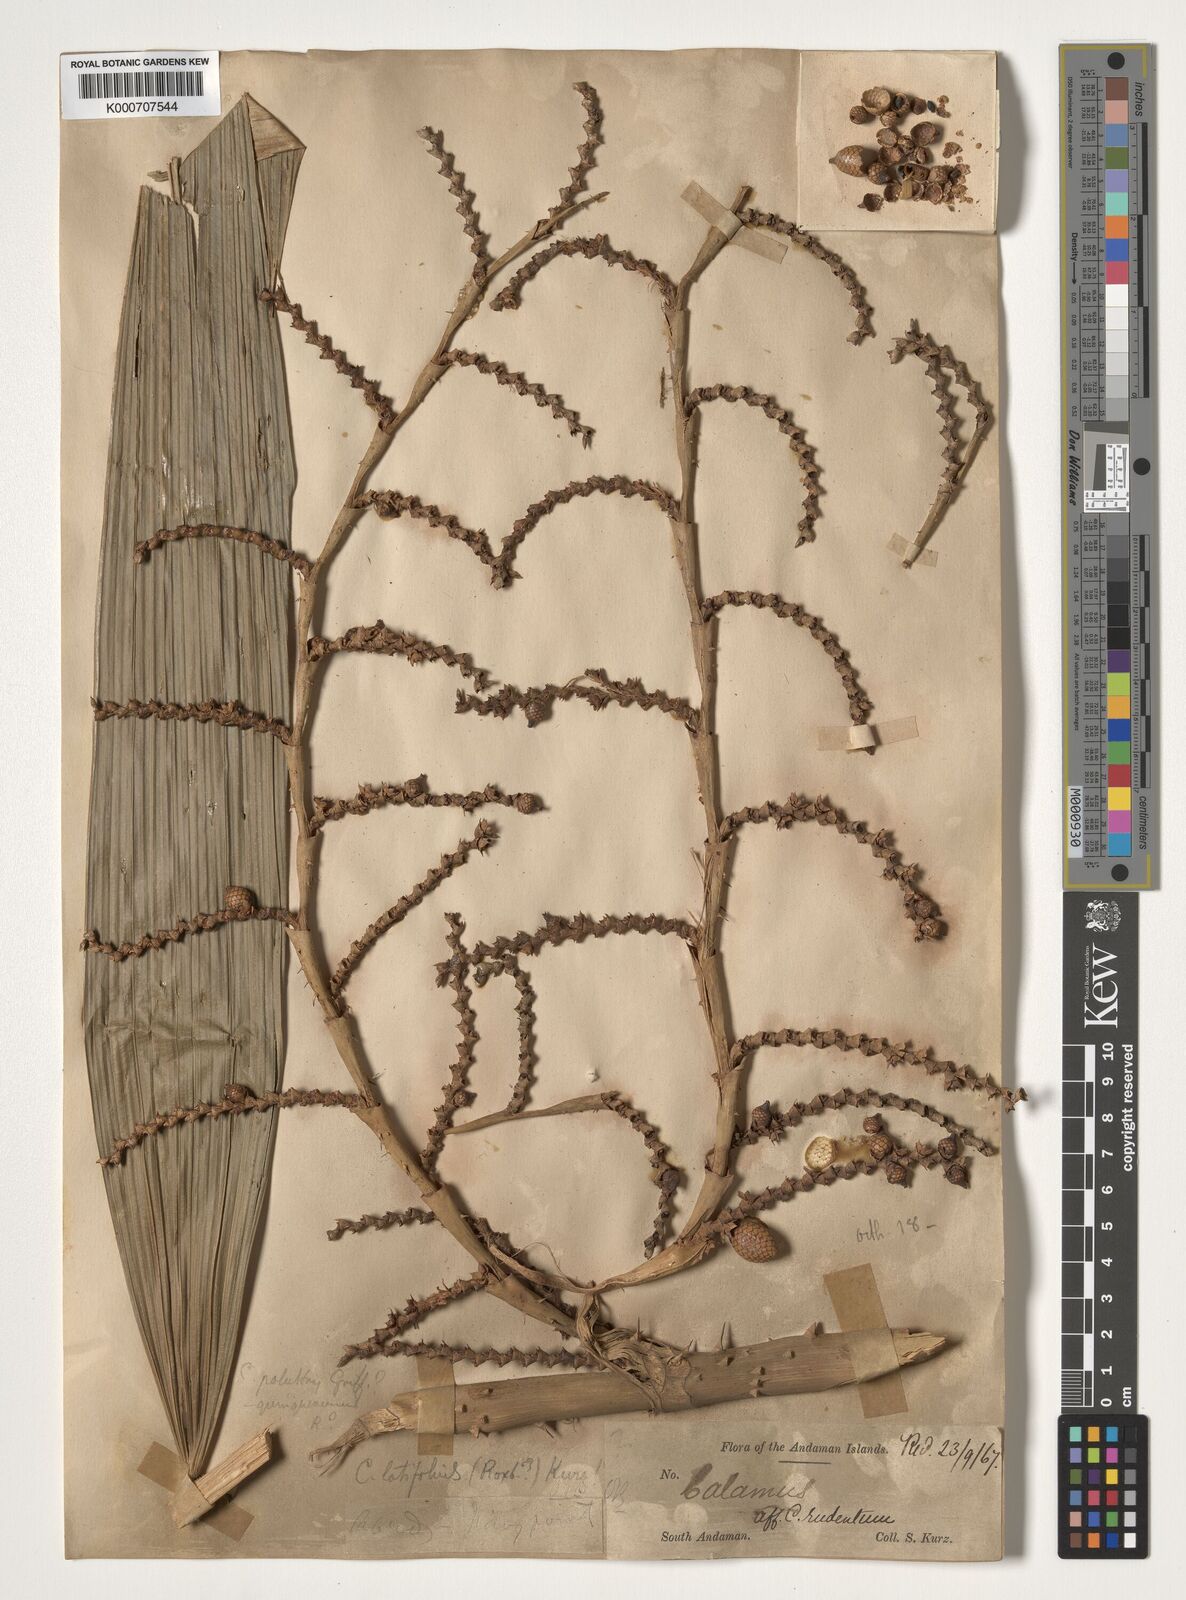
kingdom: Plantae
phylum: Tracheophyta
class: Liliopsida
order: Arecales
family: Arecaceae
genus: Calamus
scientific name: Calamus latifolius
